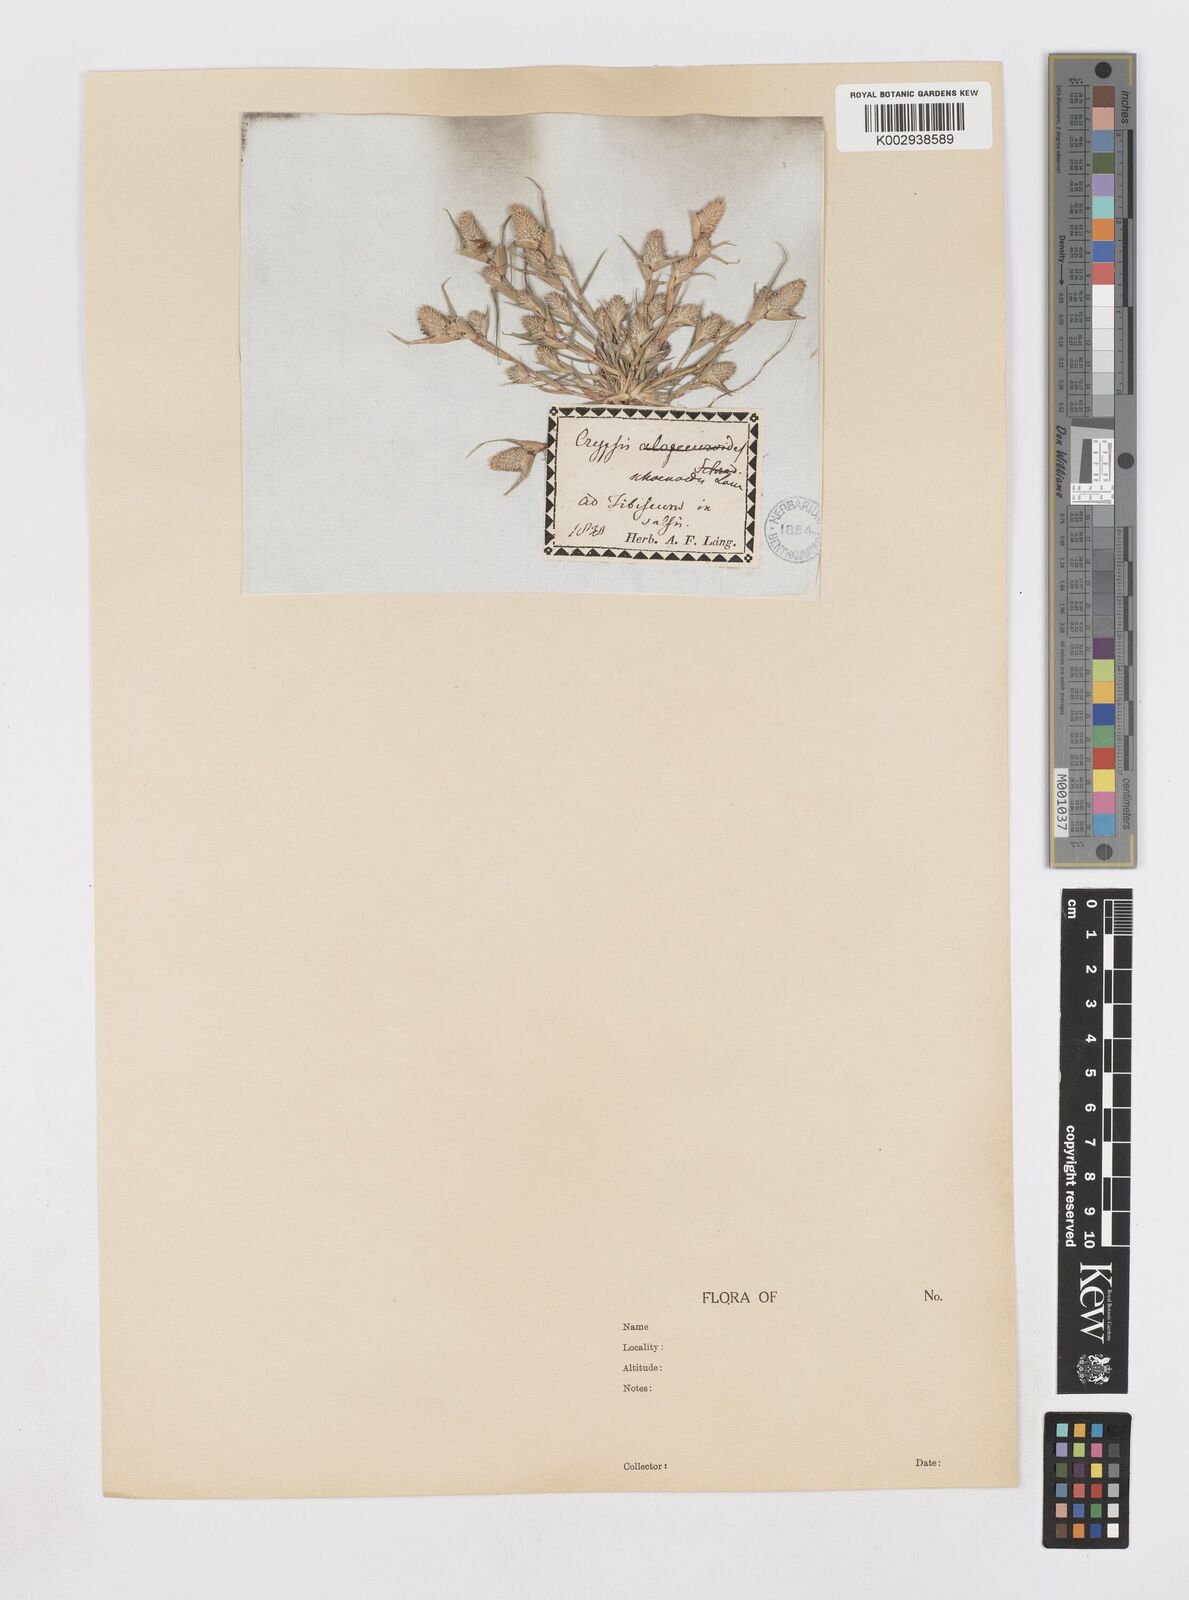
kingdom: Plantae
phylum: Tracheophyta
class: Liliopsida
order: Poales
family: Poaceae
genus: Sporobolus
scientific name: Sporobolus schoenoides
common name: Rush-like timothy
